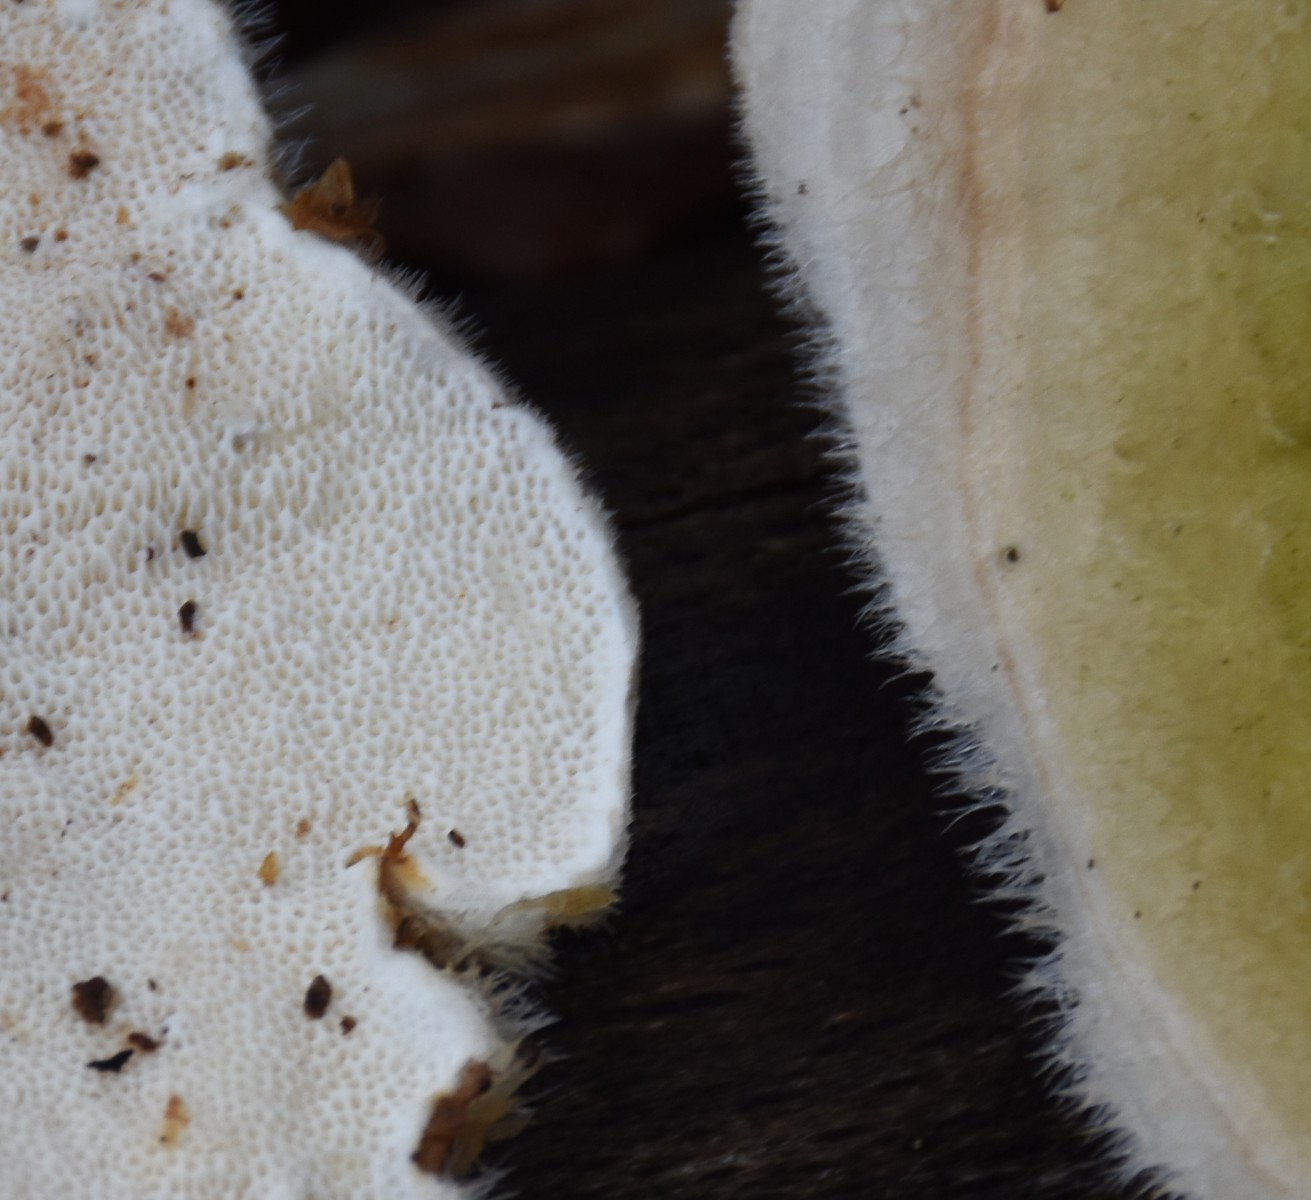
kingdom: Fungi
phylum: Basidiomycota
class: Agaricomycetes
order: Polyporales
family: Polyporaceae
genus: Trametes
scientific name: Trametes hirsuta
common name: håret læderporesvamp
